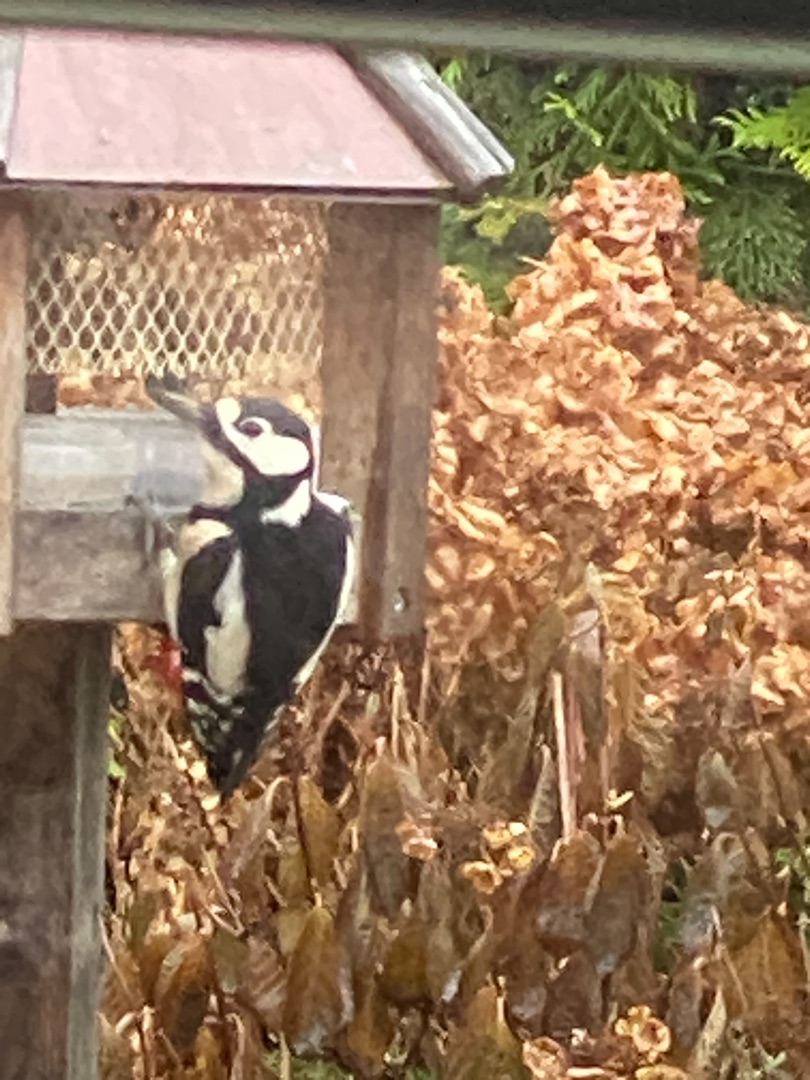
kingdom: Animalia
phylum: Chordata
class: Aves
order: Piciformes
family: Picidae
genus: Dendrocopos
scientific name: Dendrocopos major
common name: Stor flagspætte
